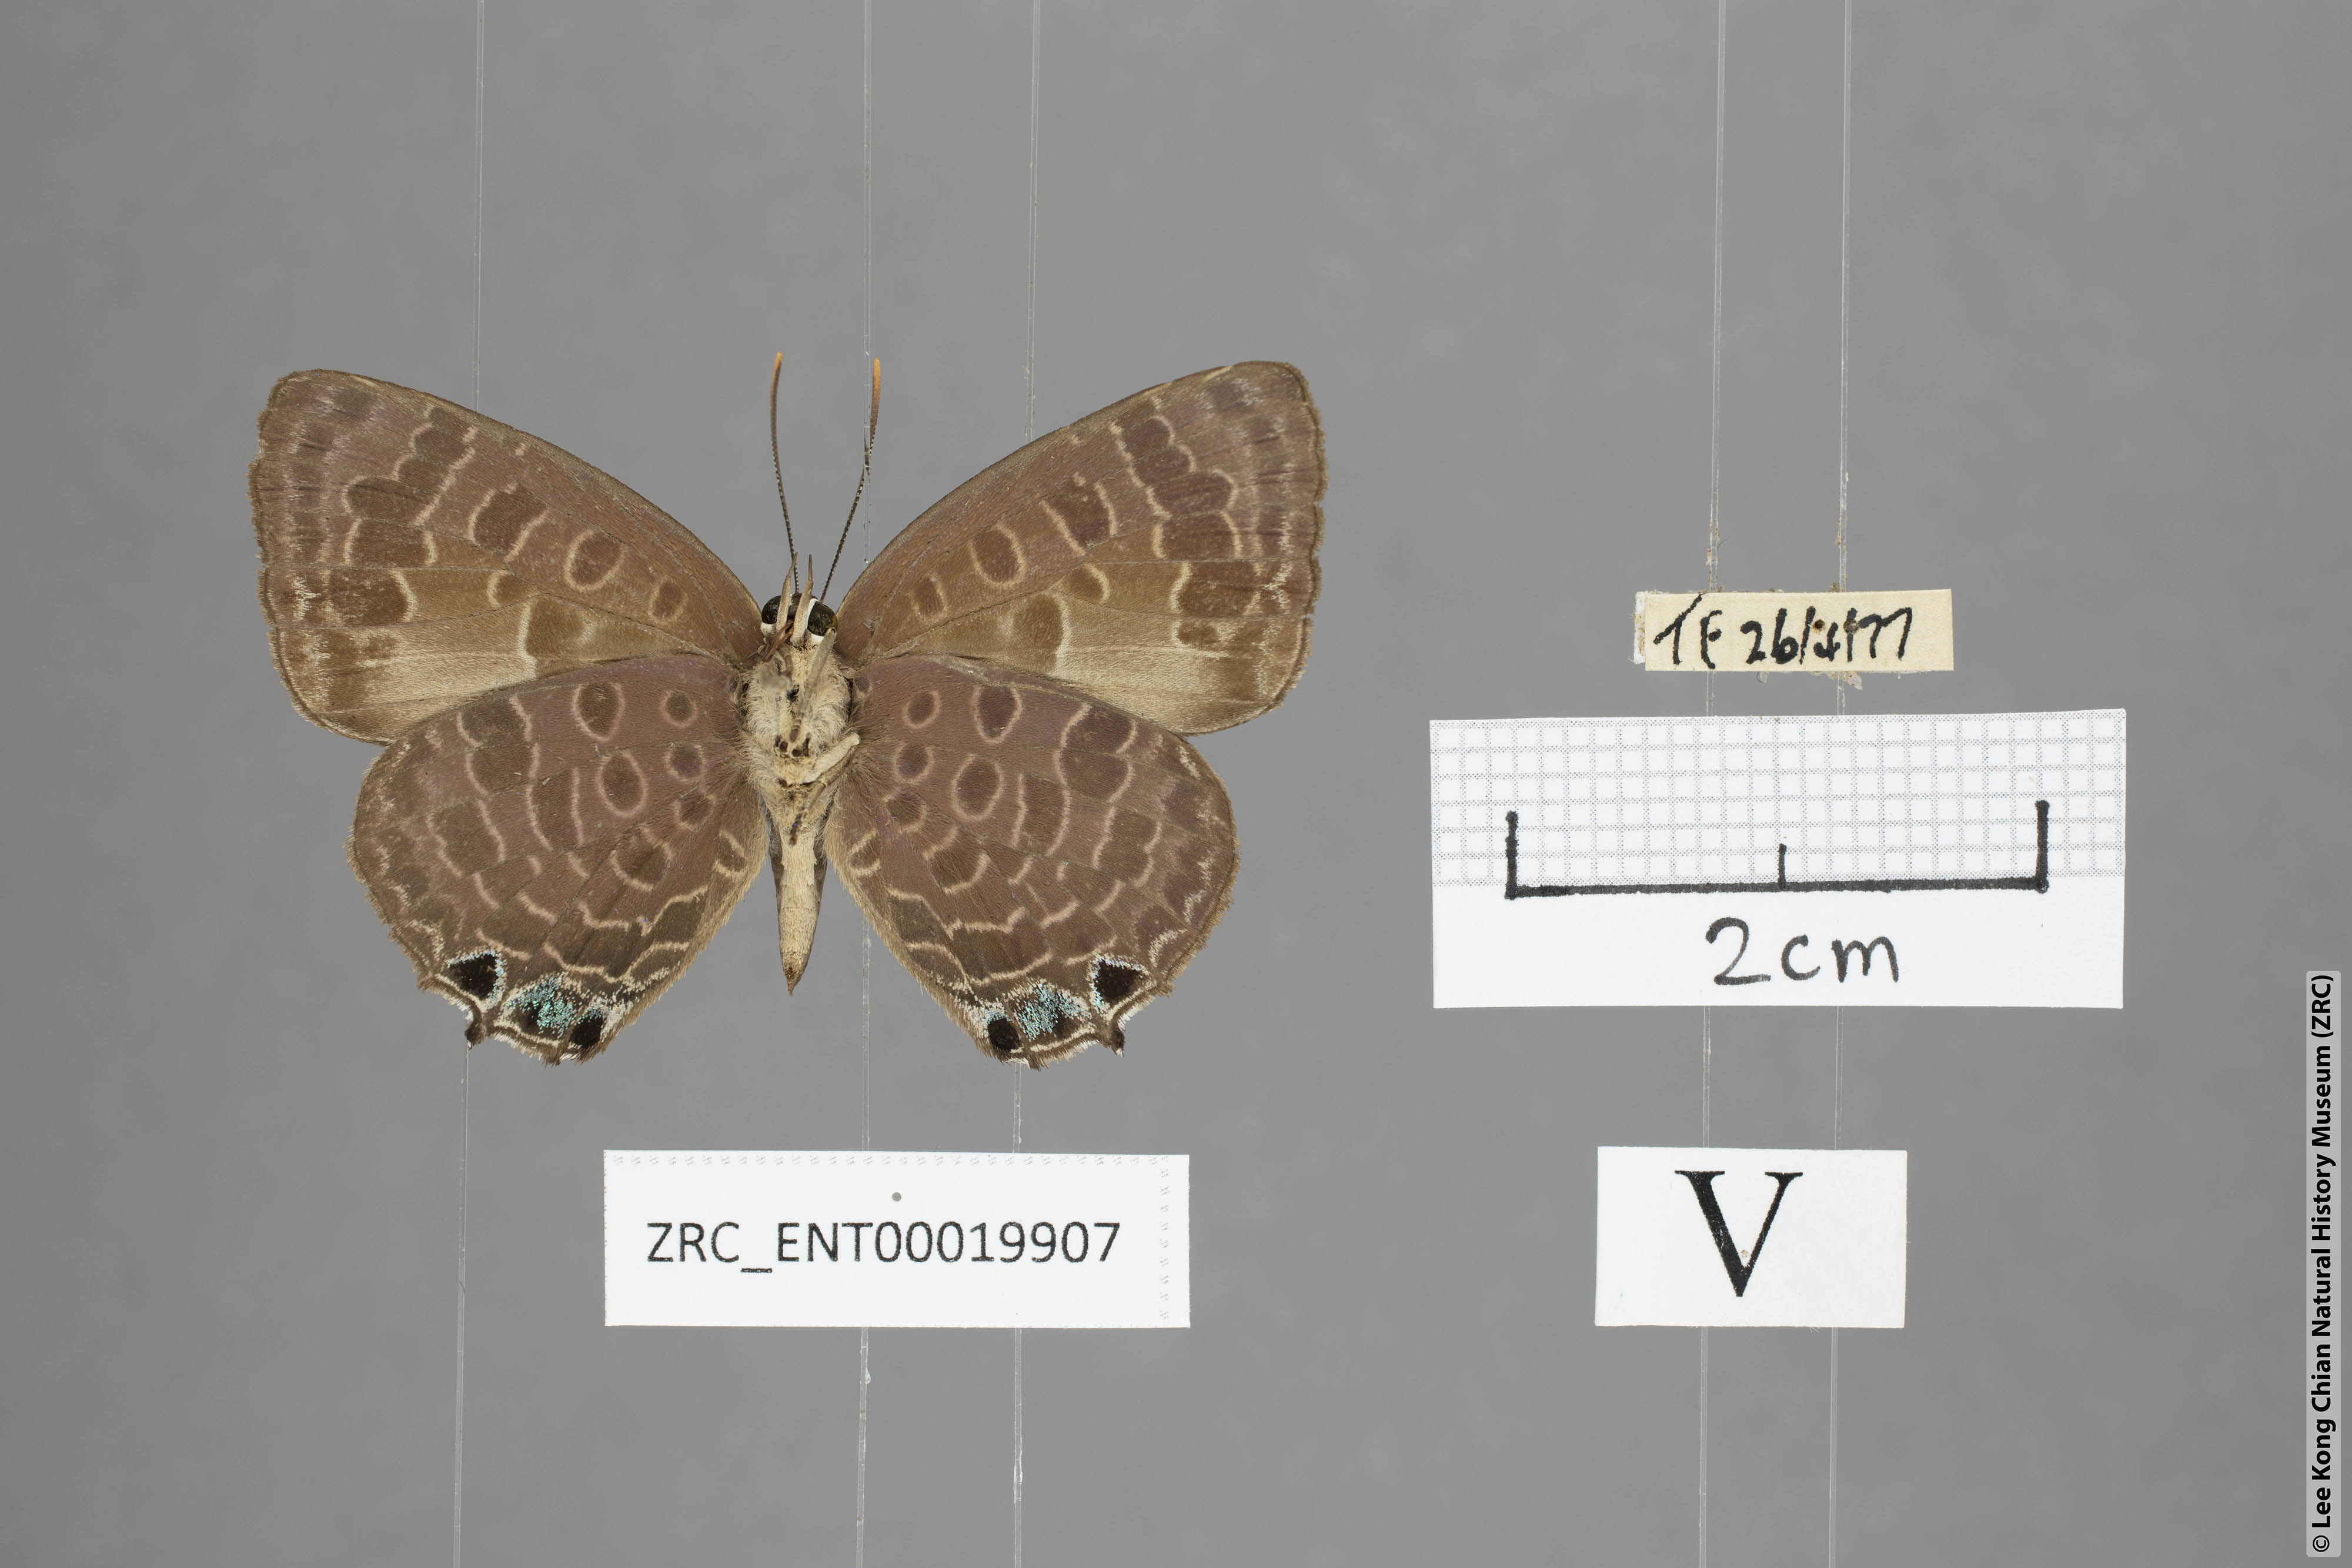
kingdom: Animalia
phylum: Arthropoda
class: Insecta
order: Lepidoptera
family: Lycaenidae
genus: Arhopala
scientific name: Arhopala trogon
